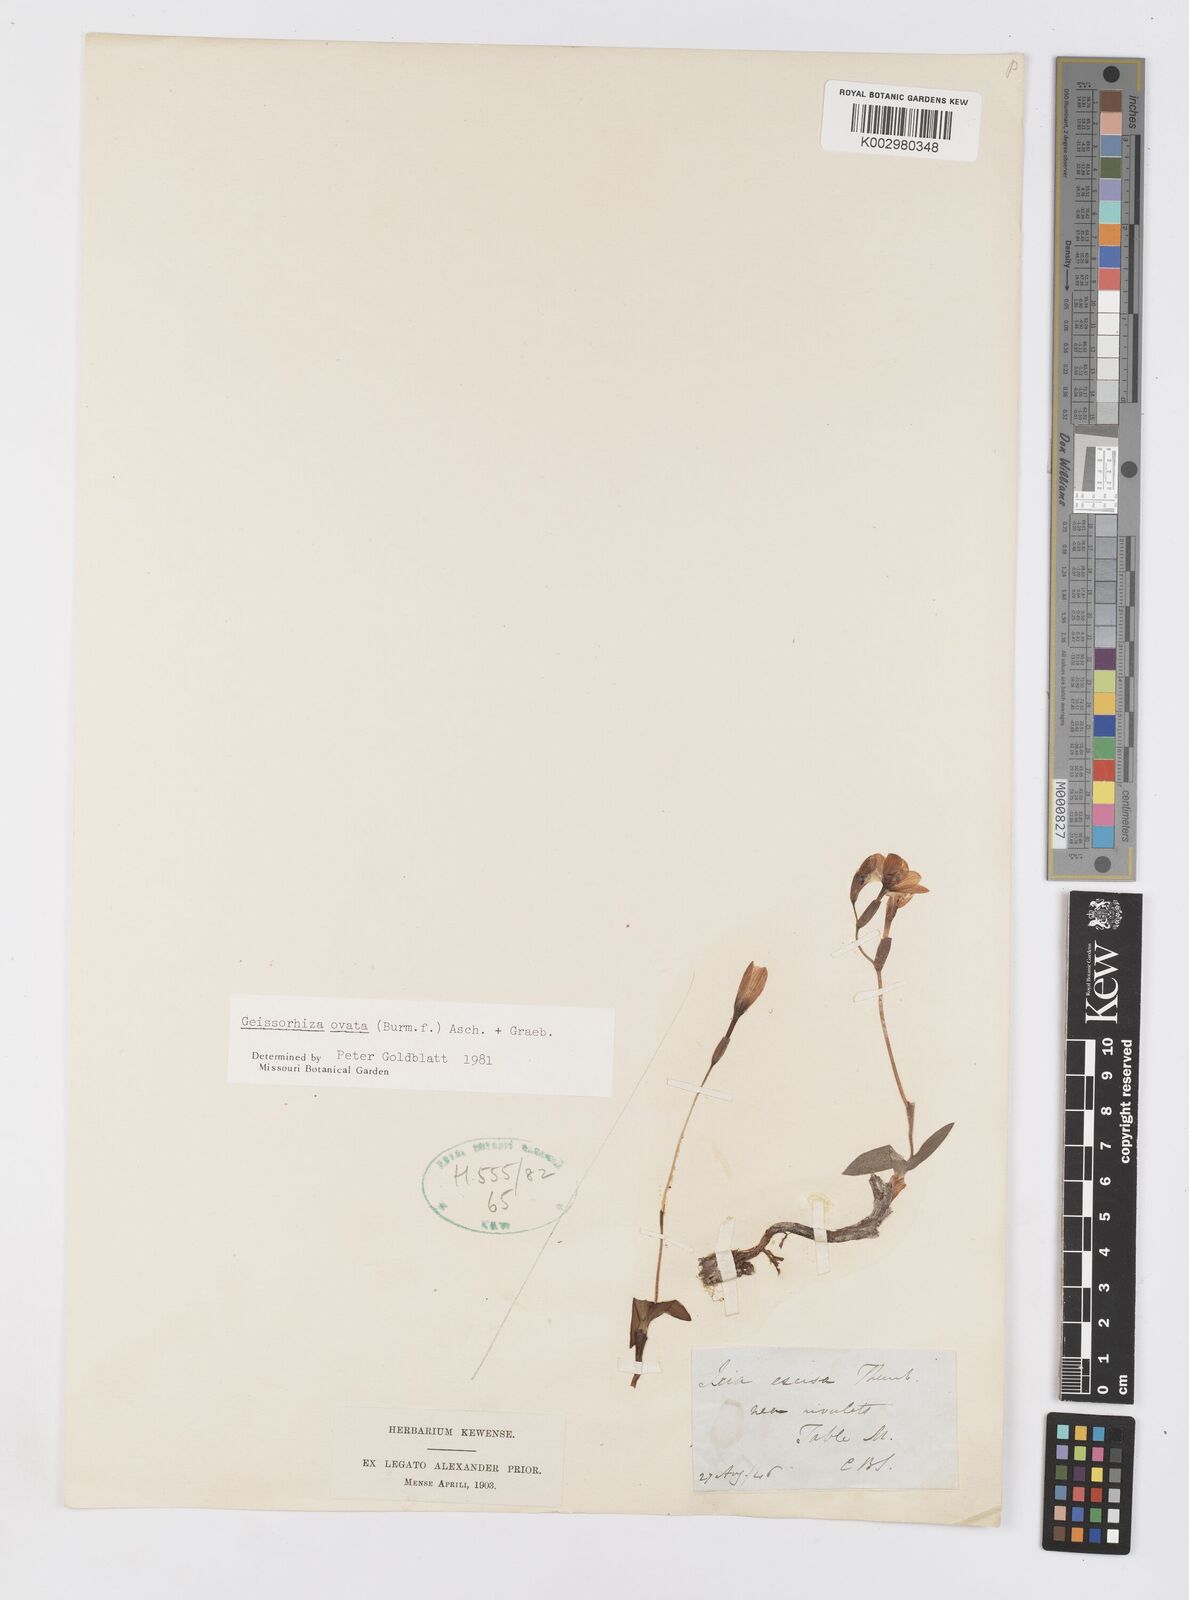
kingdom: Plantae
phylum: Tracheophyta
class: Liliopsida
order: Asparagales
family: Iridaceae
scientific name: Iridaceae
